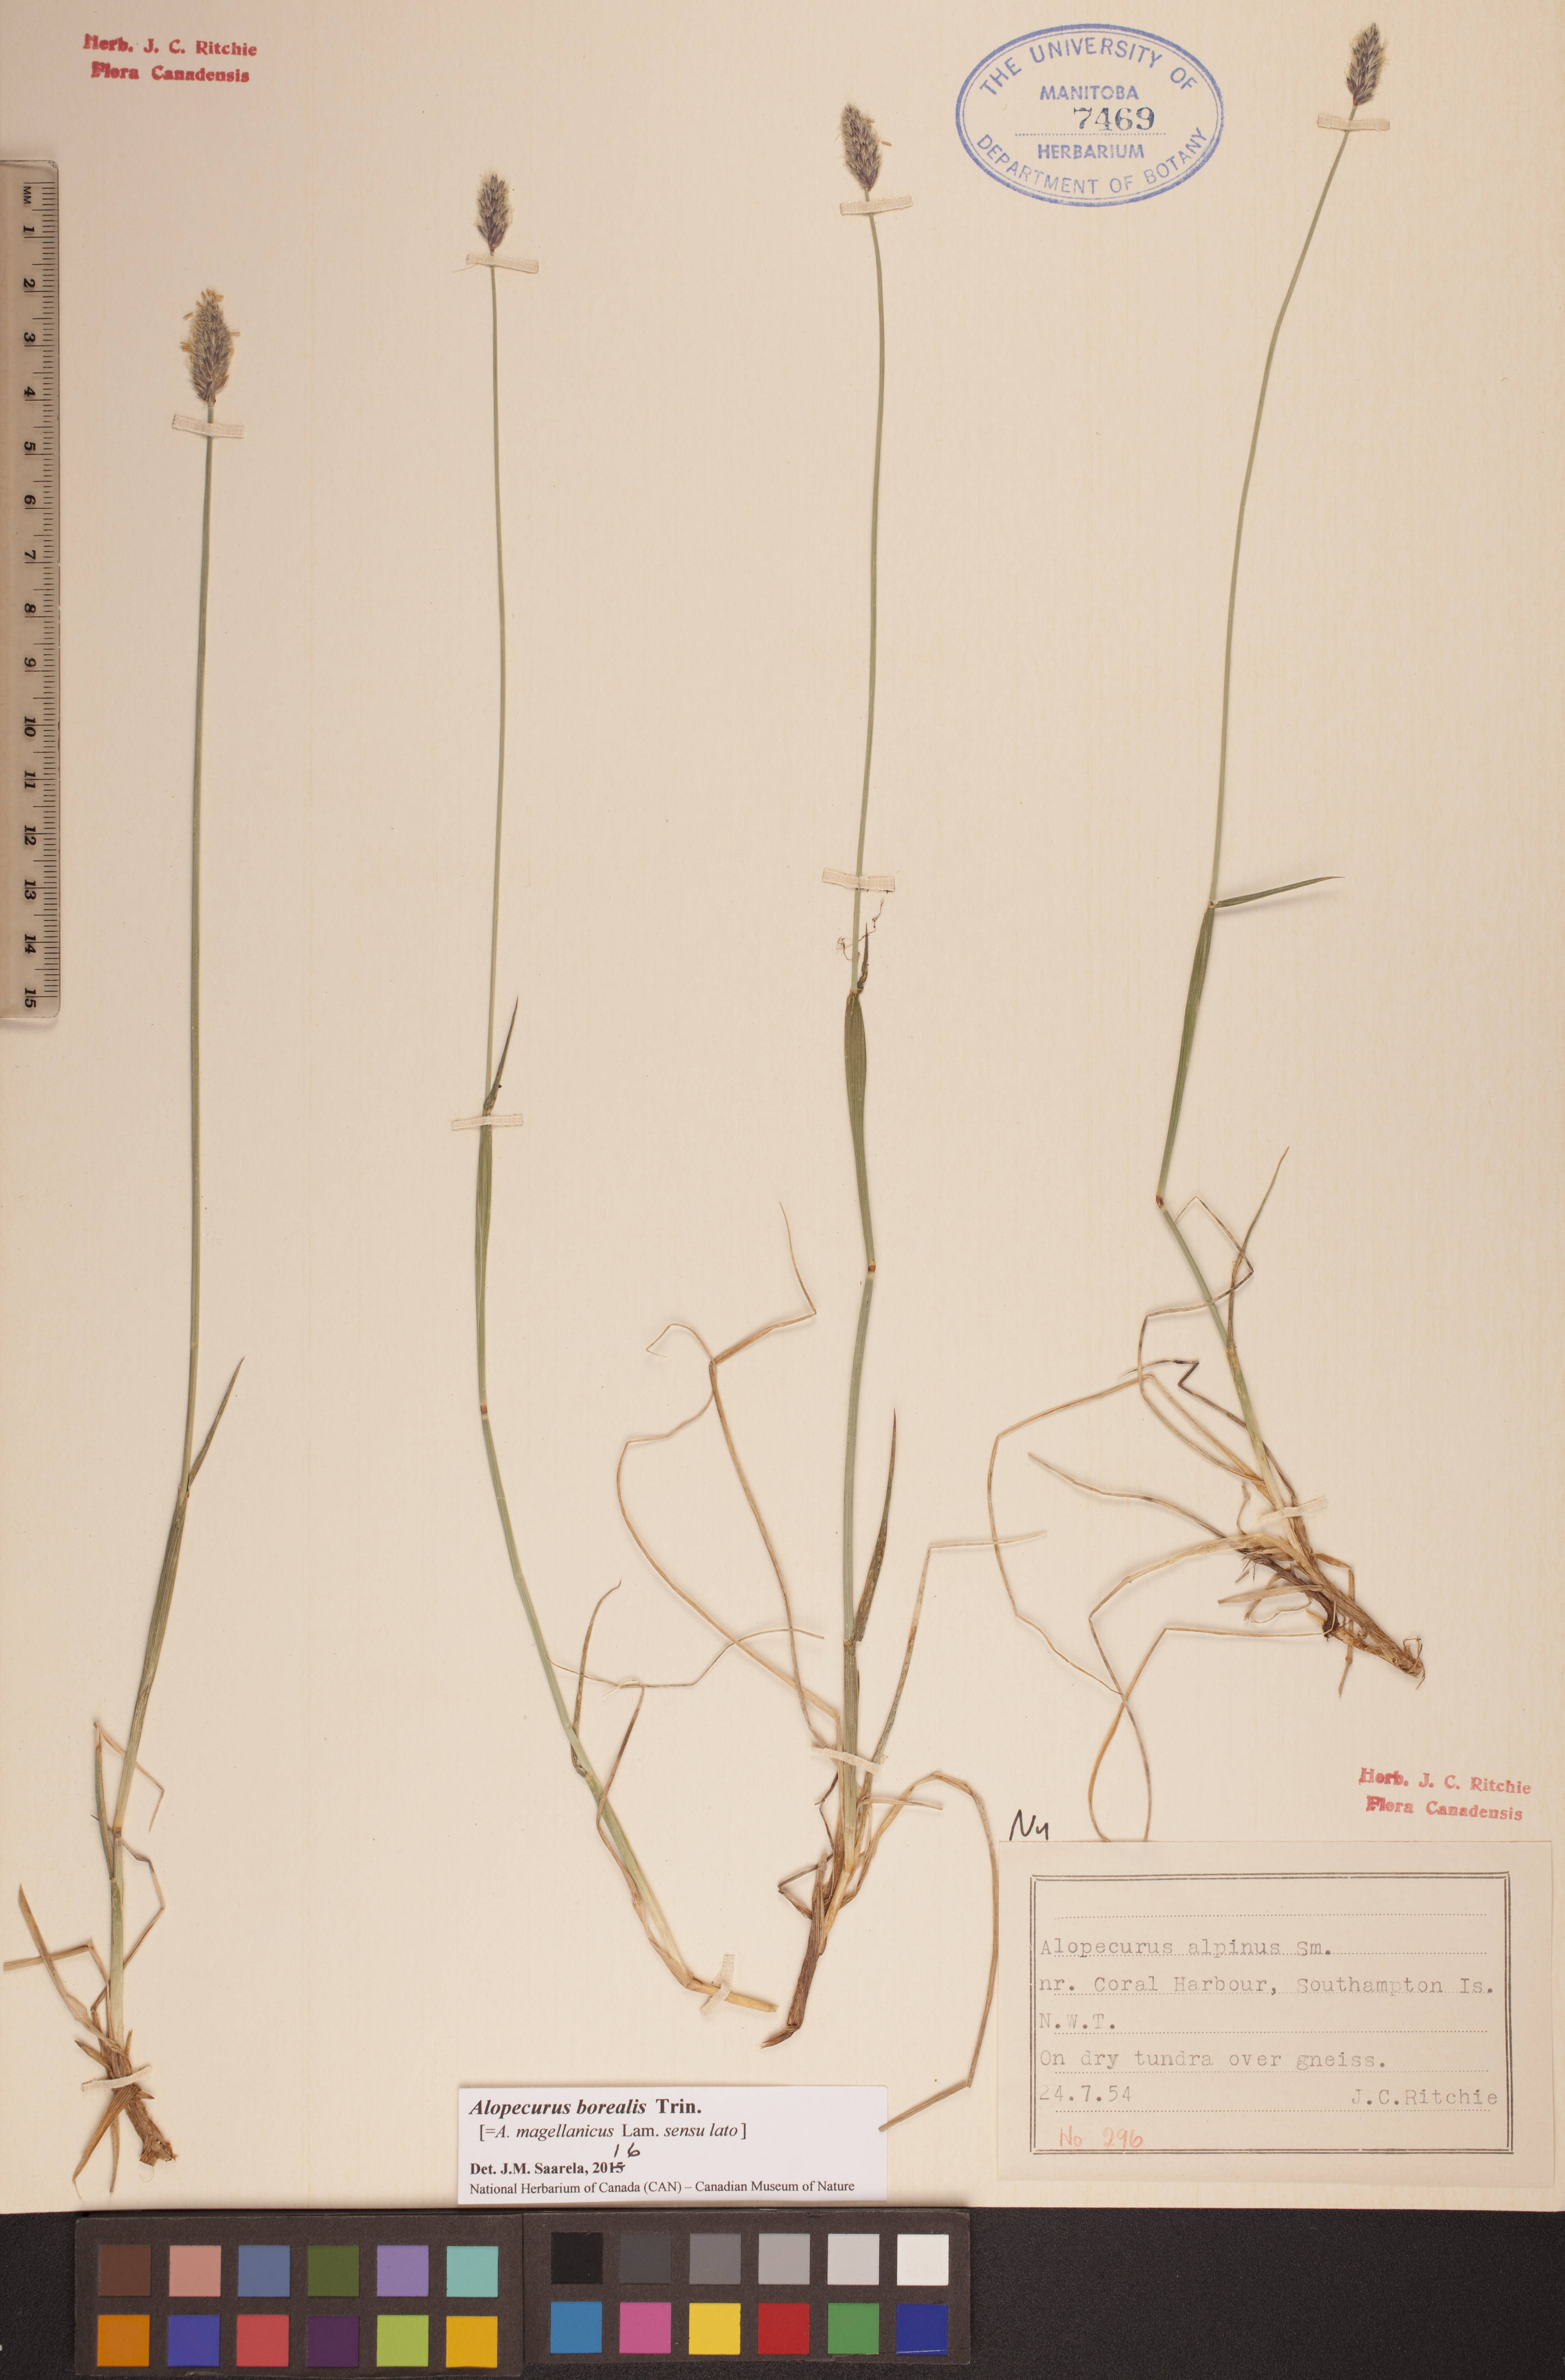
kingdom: Plantae
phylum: Tracheophyta
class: Liliopsida
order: Poales
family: Poaceae
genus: Alopecurus
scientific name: Alopecurus magellanicus
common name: Alpine foxtail
